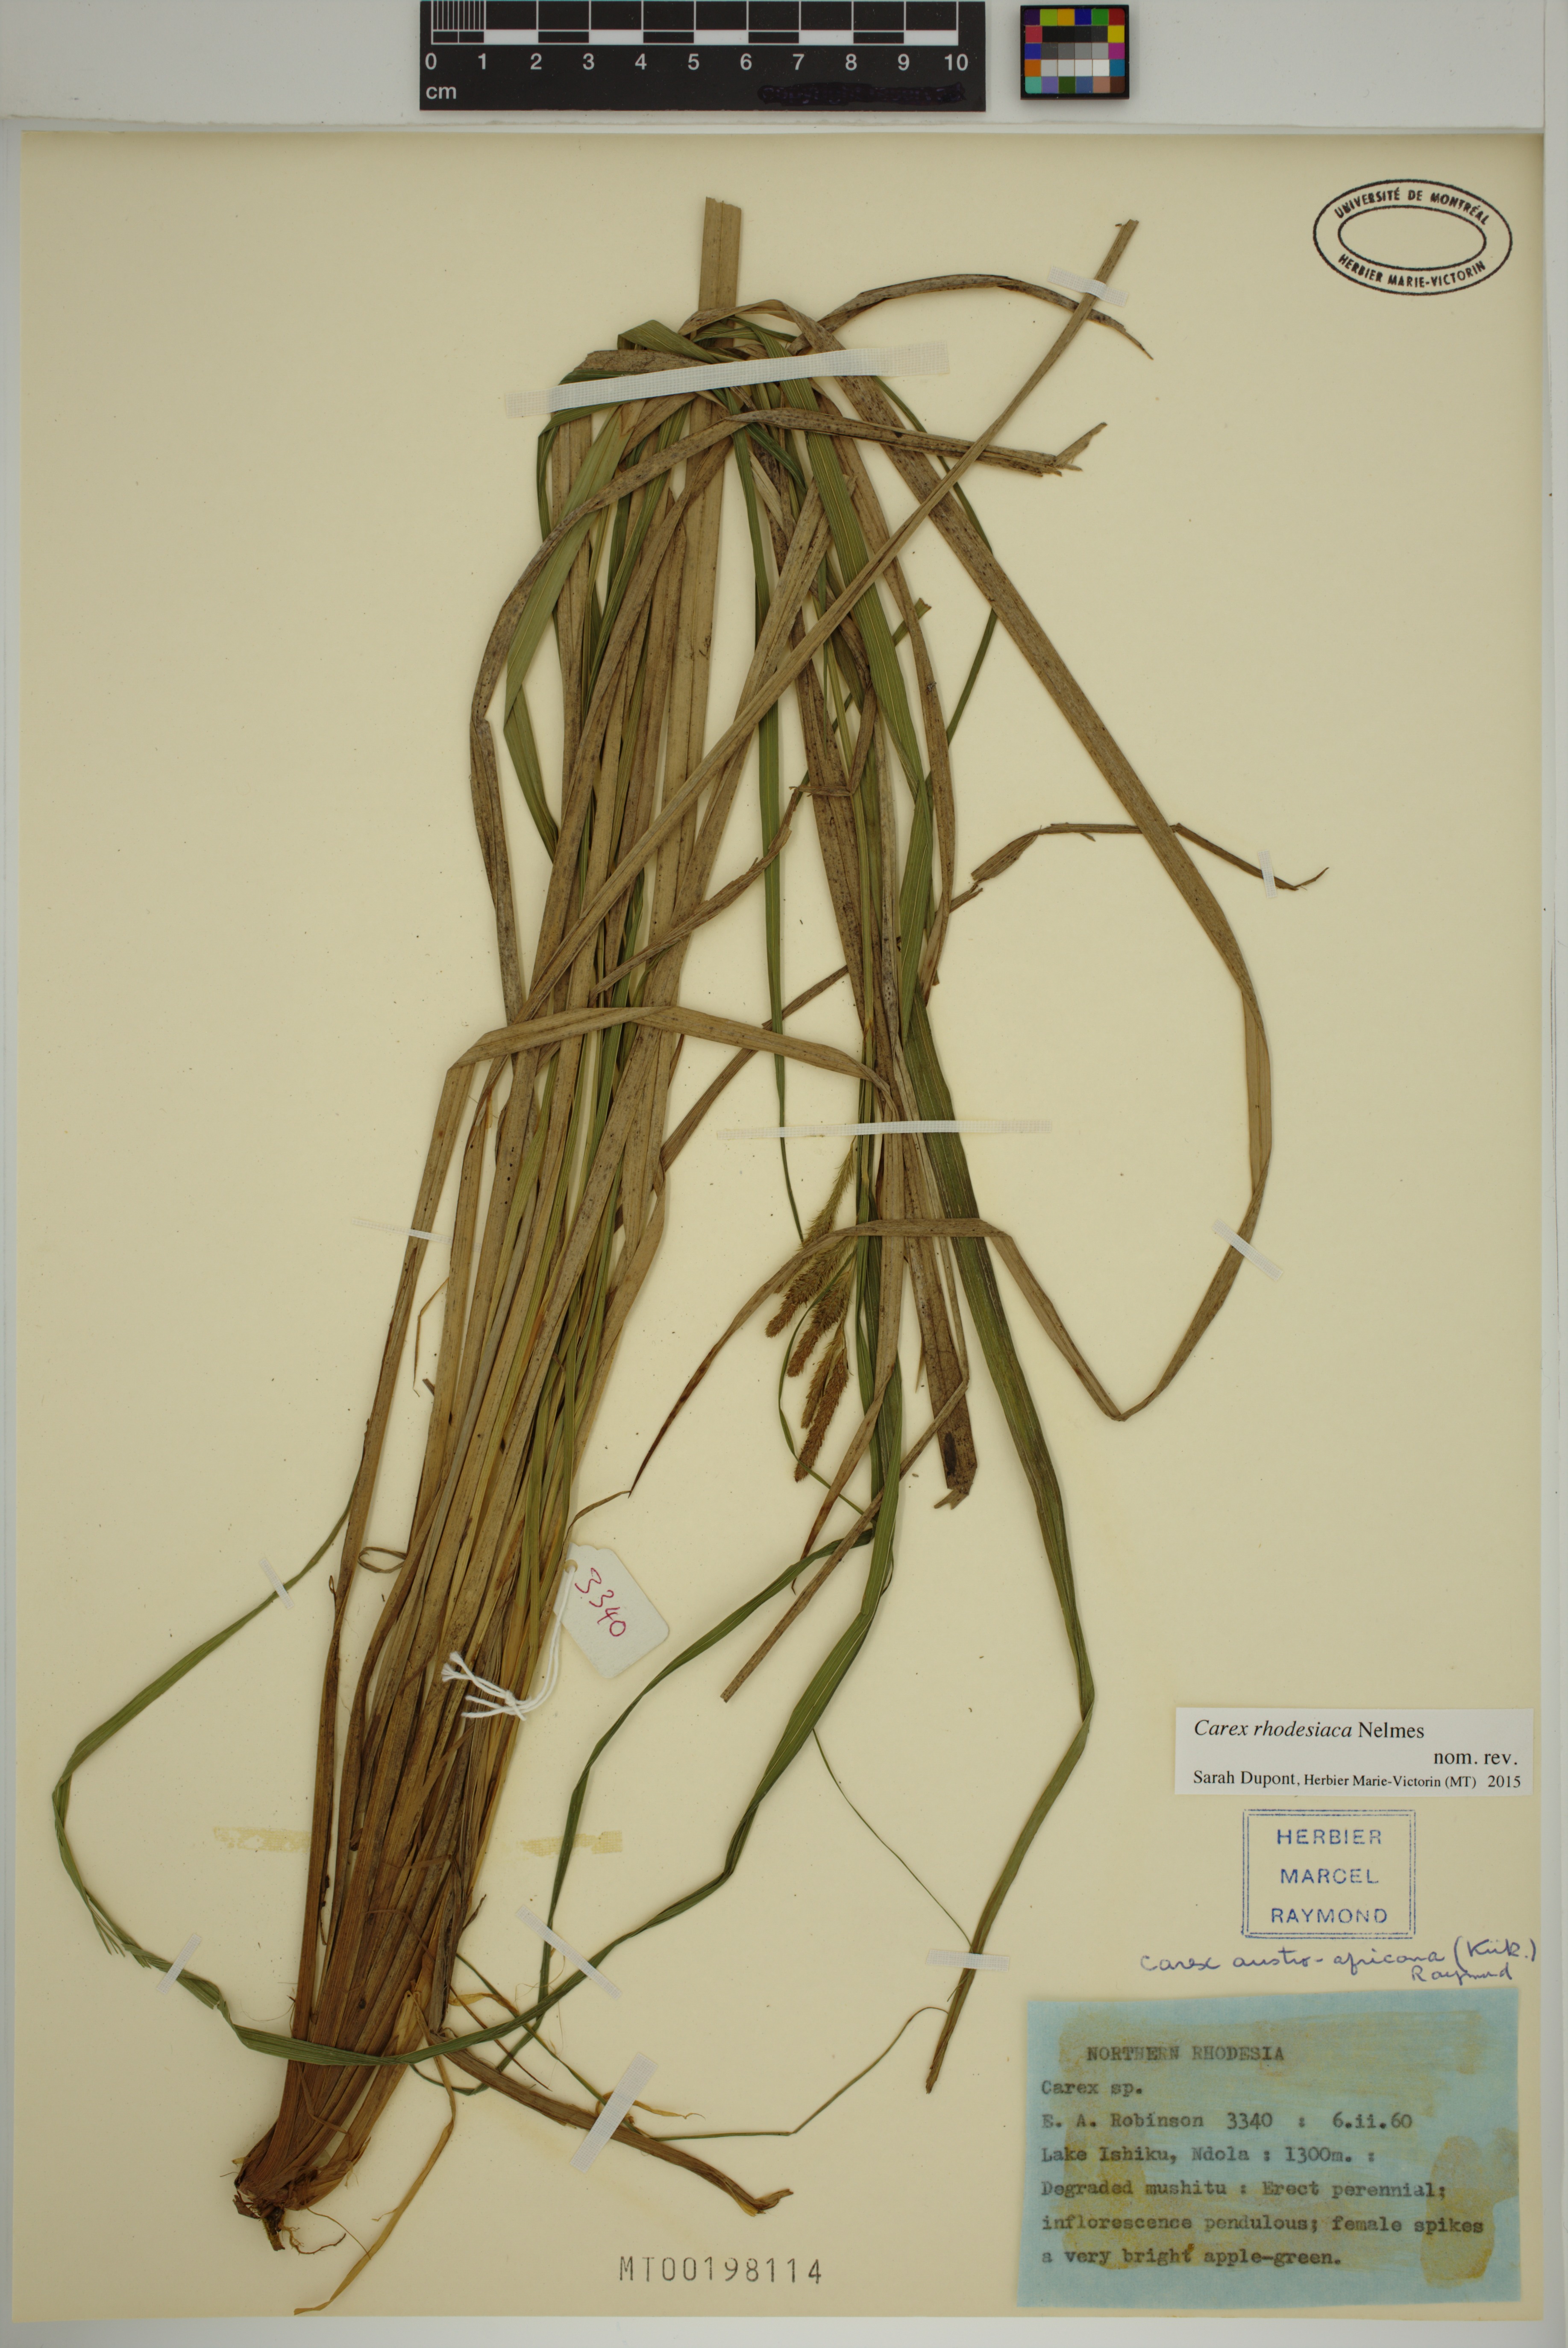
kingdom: Plantae
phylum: Tracheophyta
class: Liliopsida
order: Poales
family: Cyperaceae
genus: Carex
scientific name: Carex rhodesiaca
